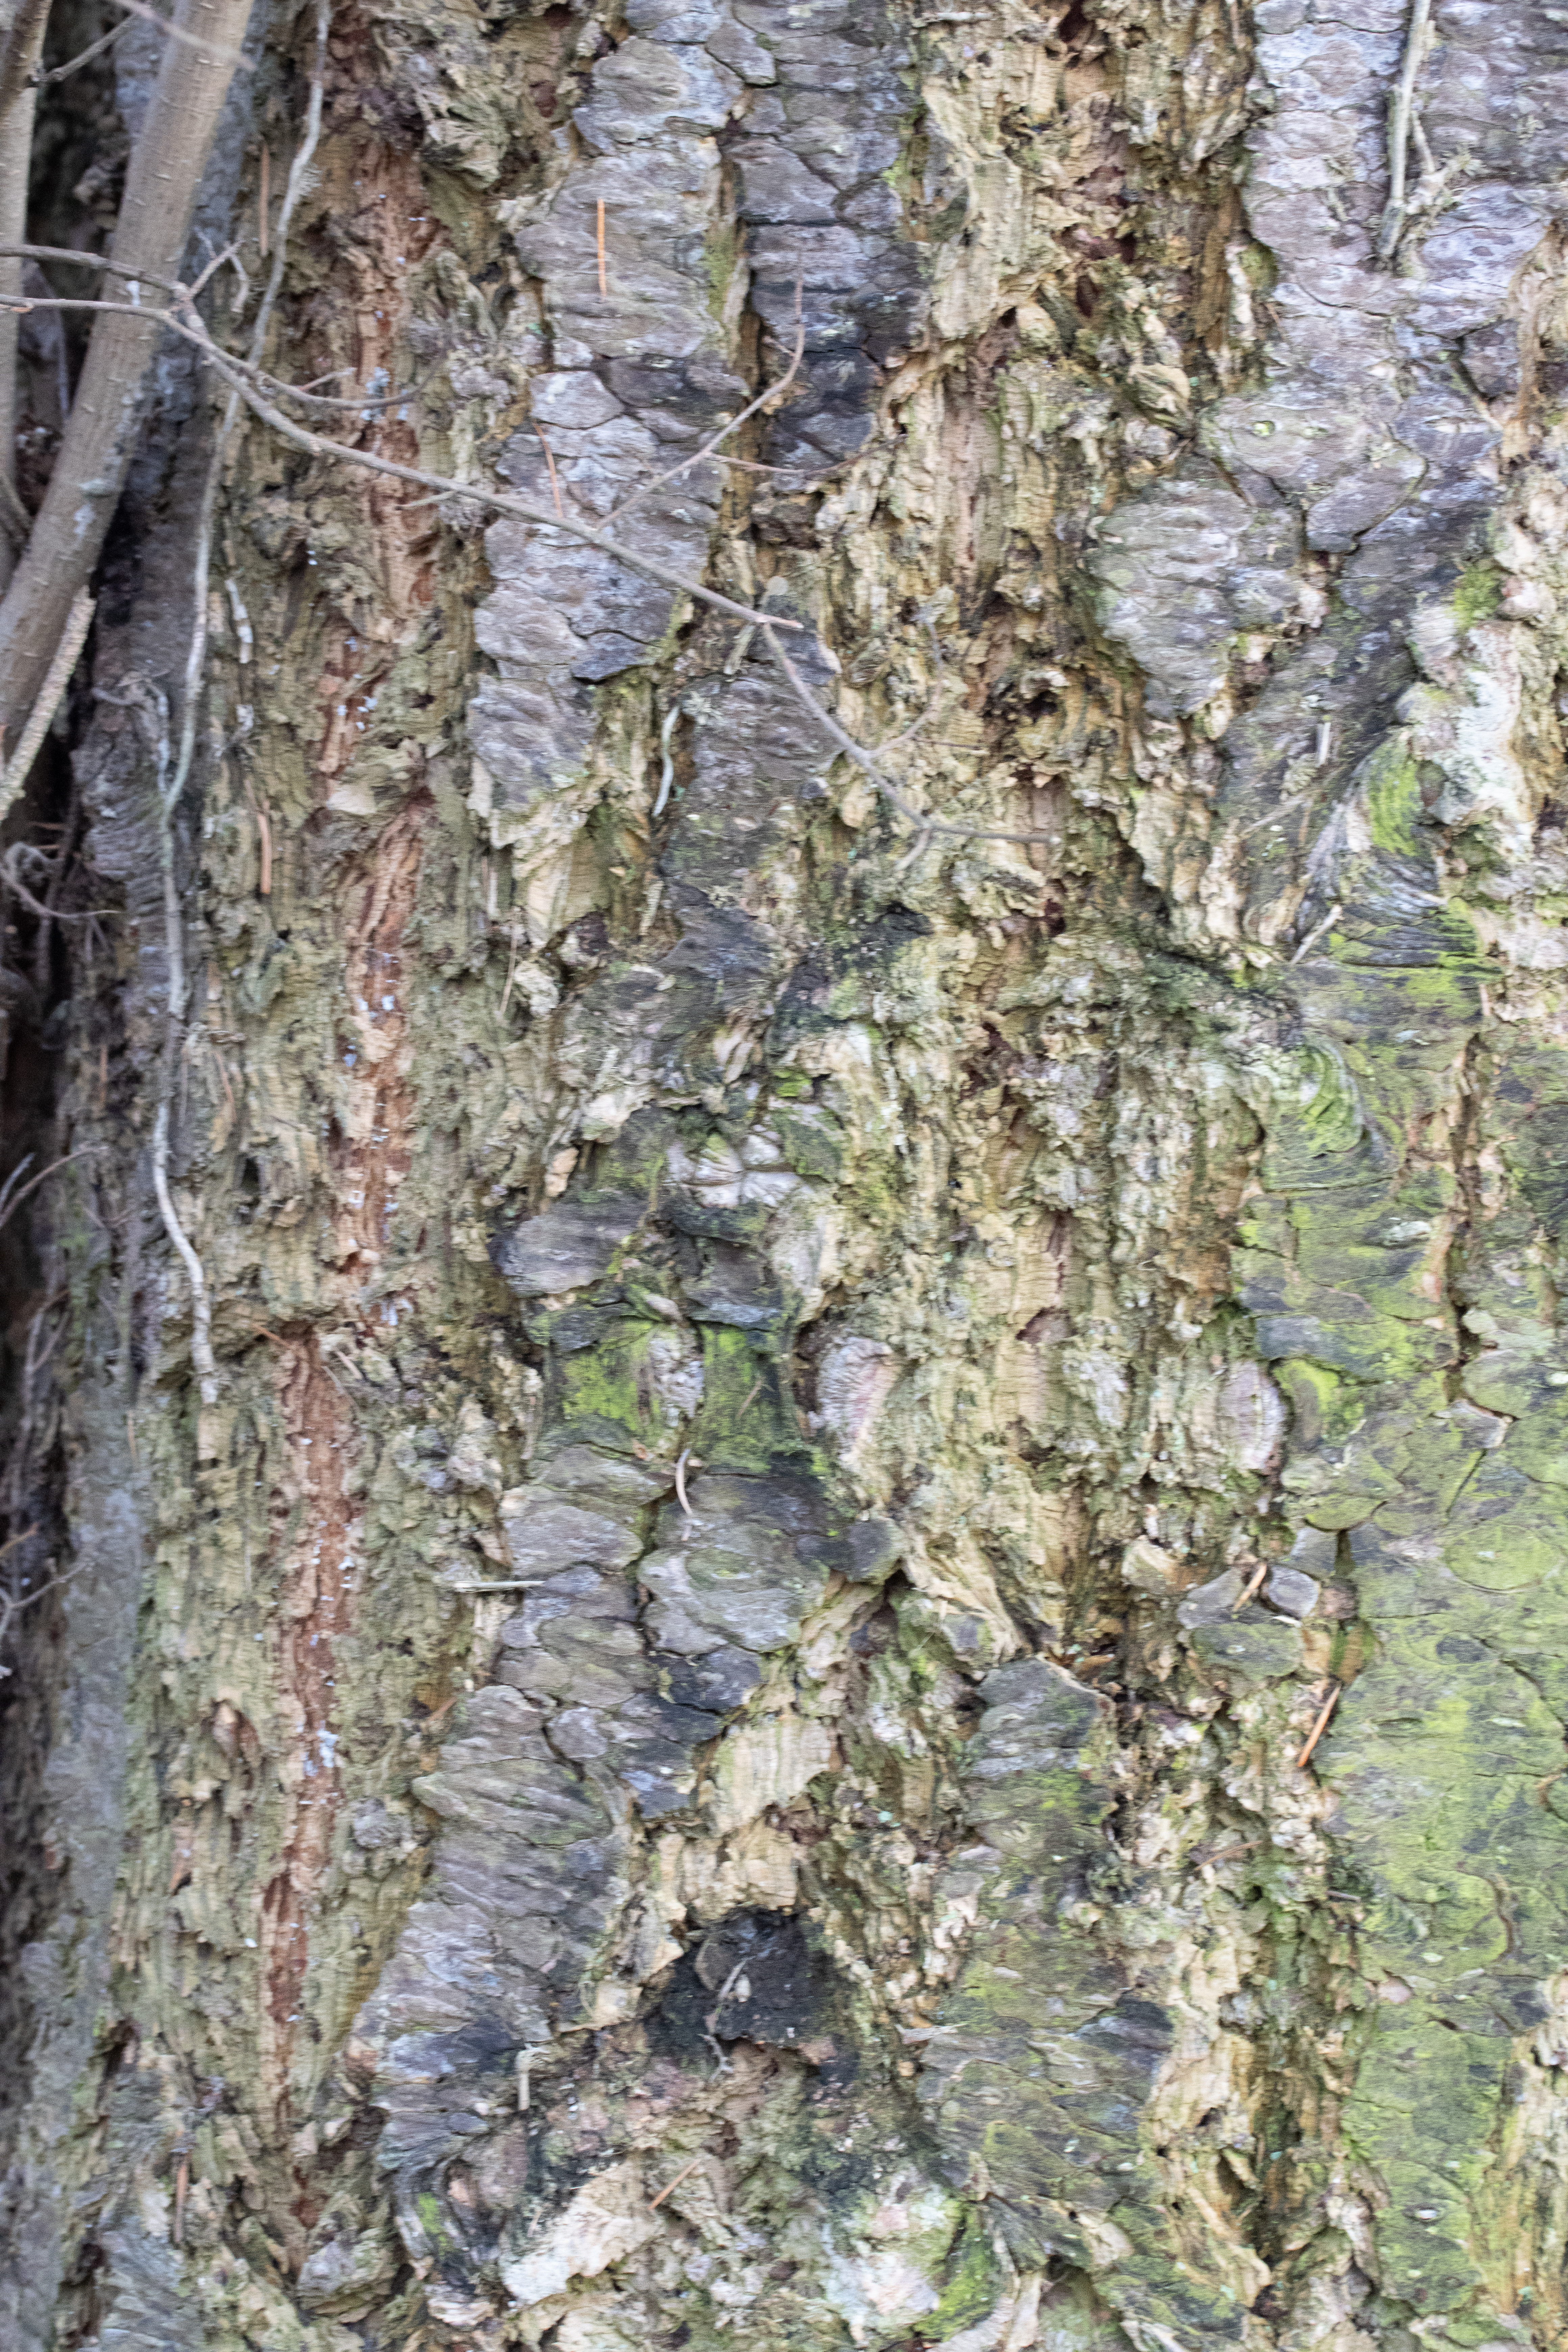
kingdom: Plantae
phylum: Tracheophyta
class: Pinopsida
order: Pinales
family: Pinaceae
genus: Pseudotsuga
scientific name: Pseudotsuga menziesii
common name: Douglasgran
